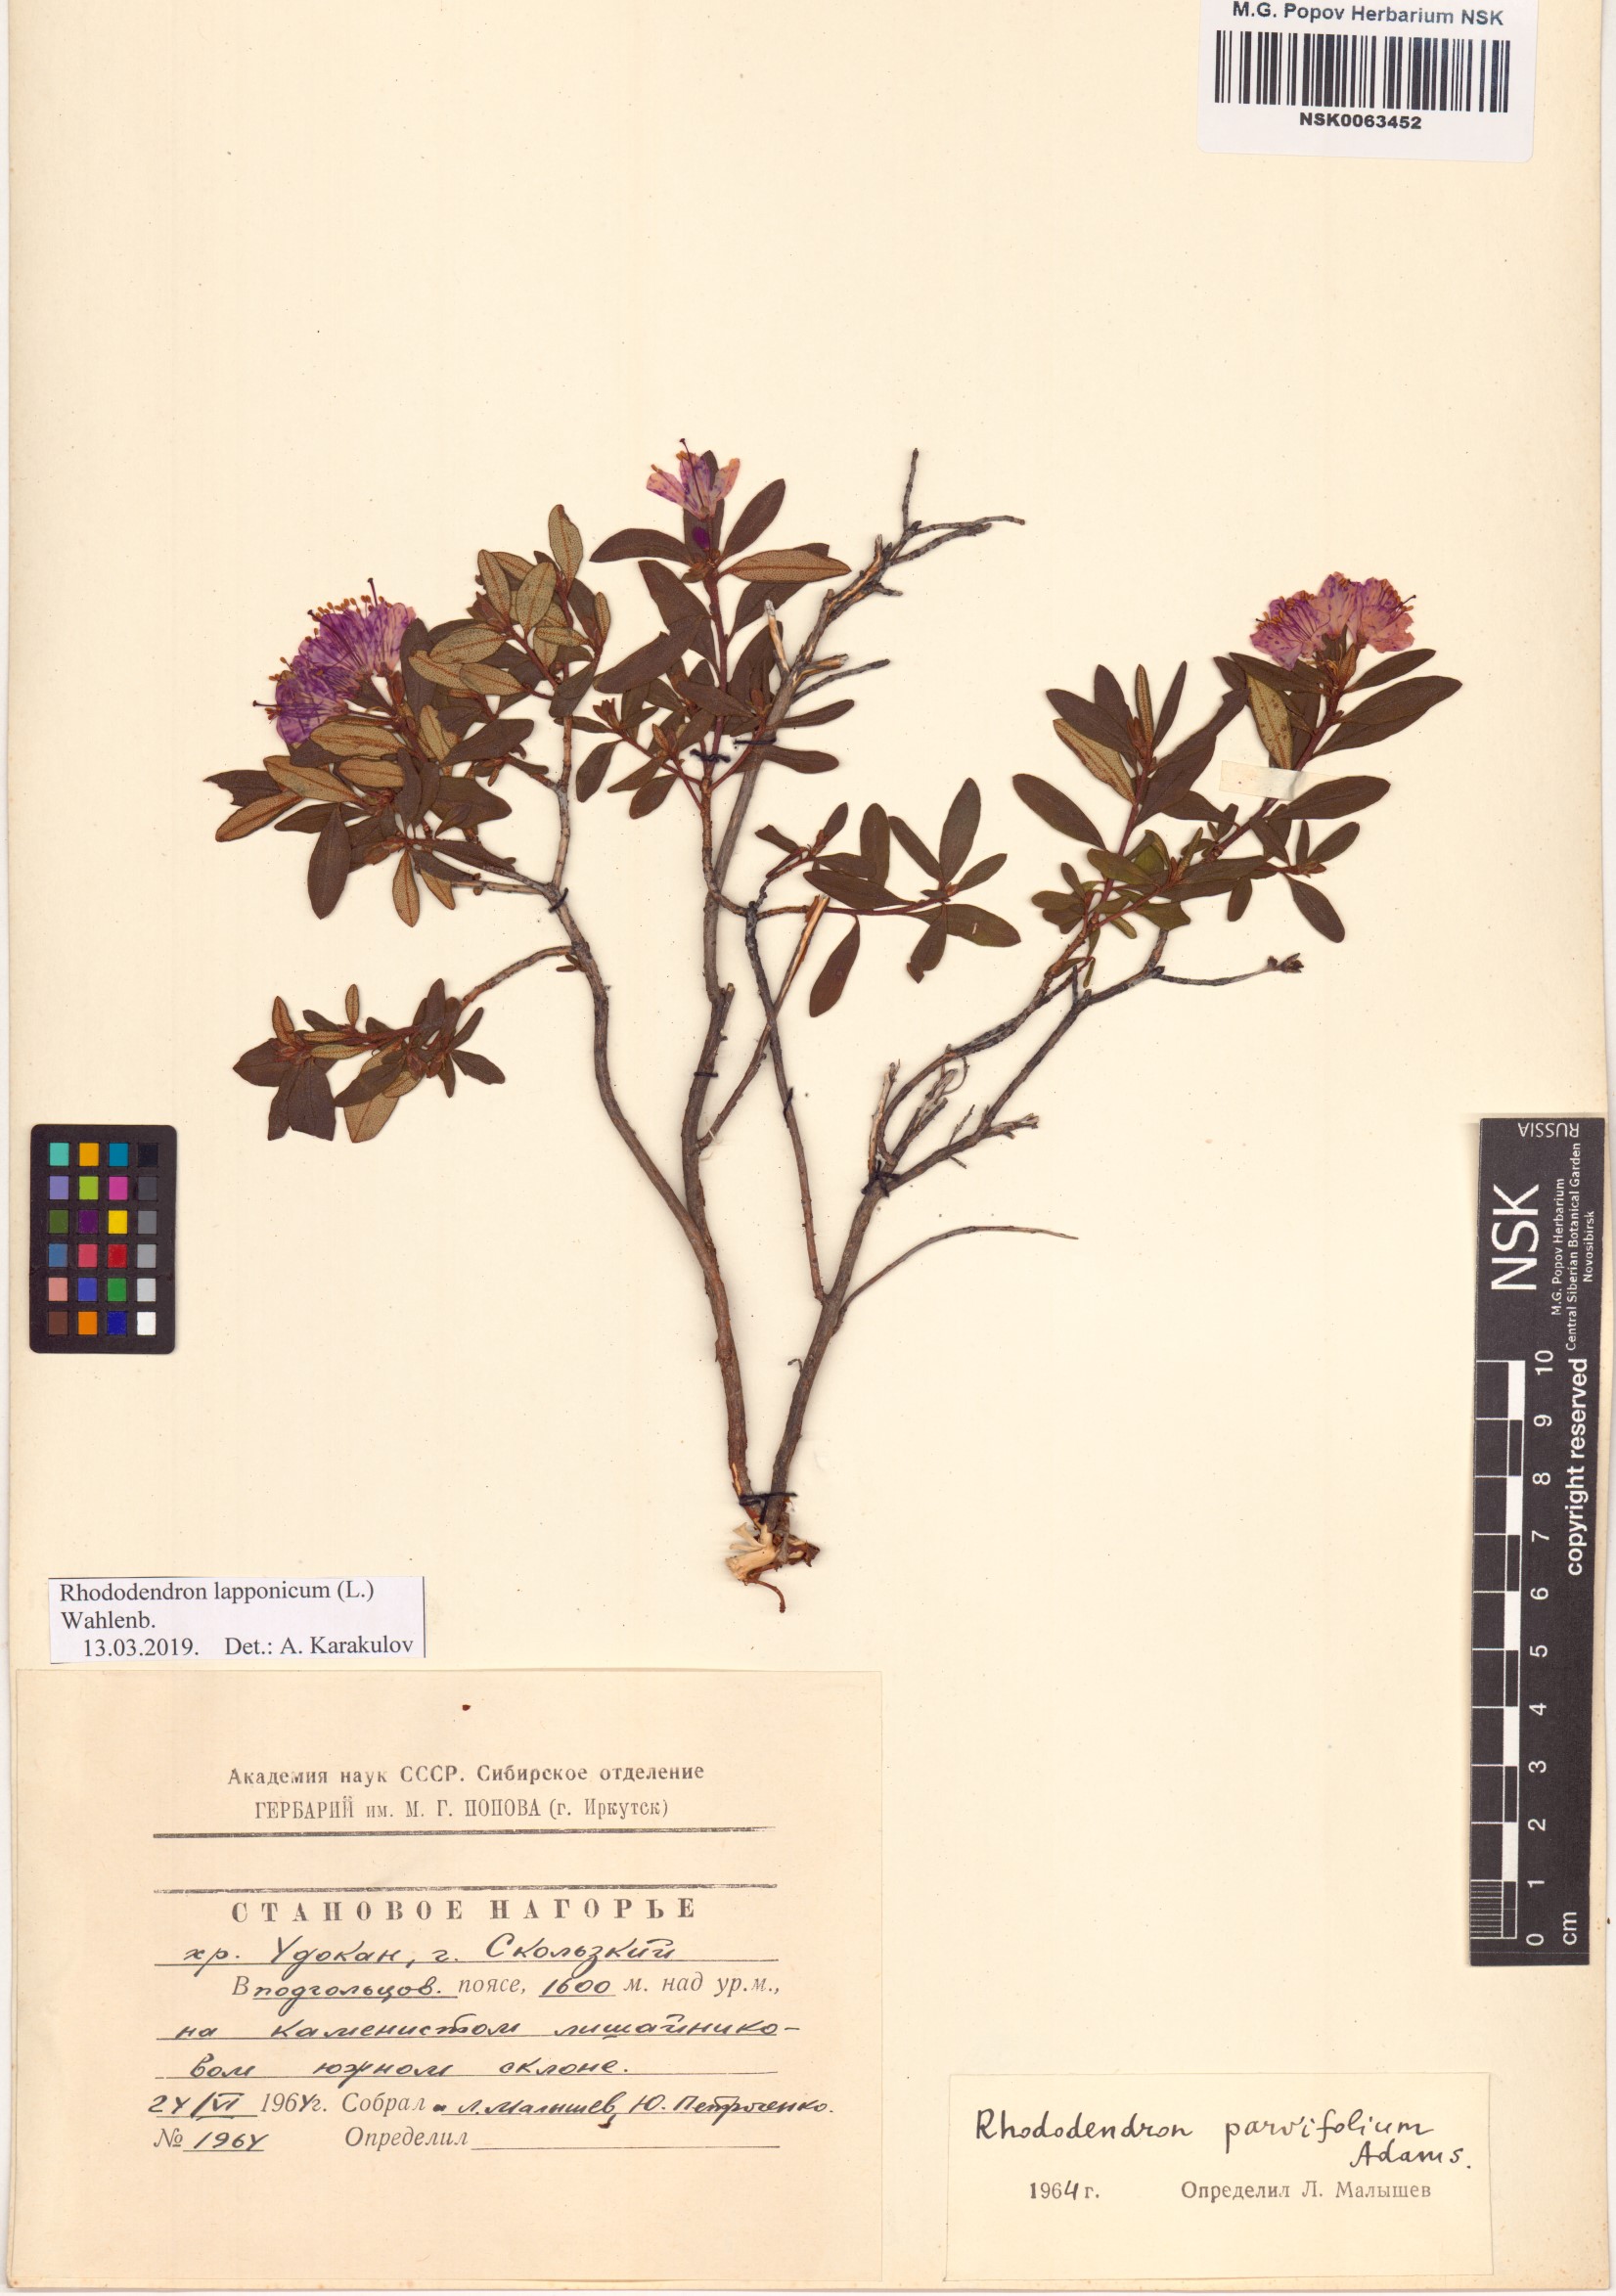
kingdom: Plantae
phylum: Tracheophyta
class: Magnoliopsida
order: Ericales
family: Ericaceae
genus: Rhododendron
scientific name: Rhododendron lapponicum
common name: Lapland rhododendron
